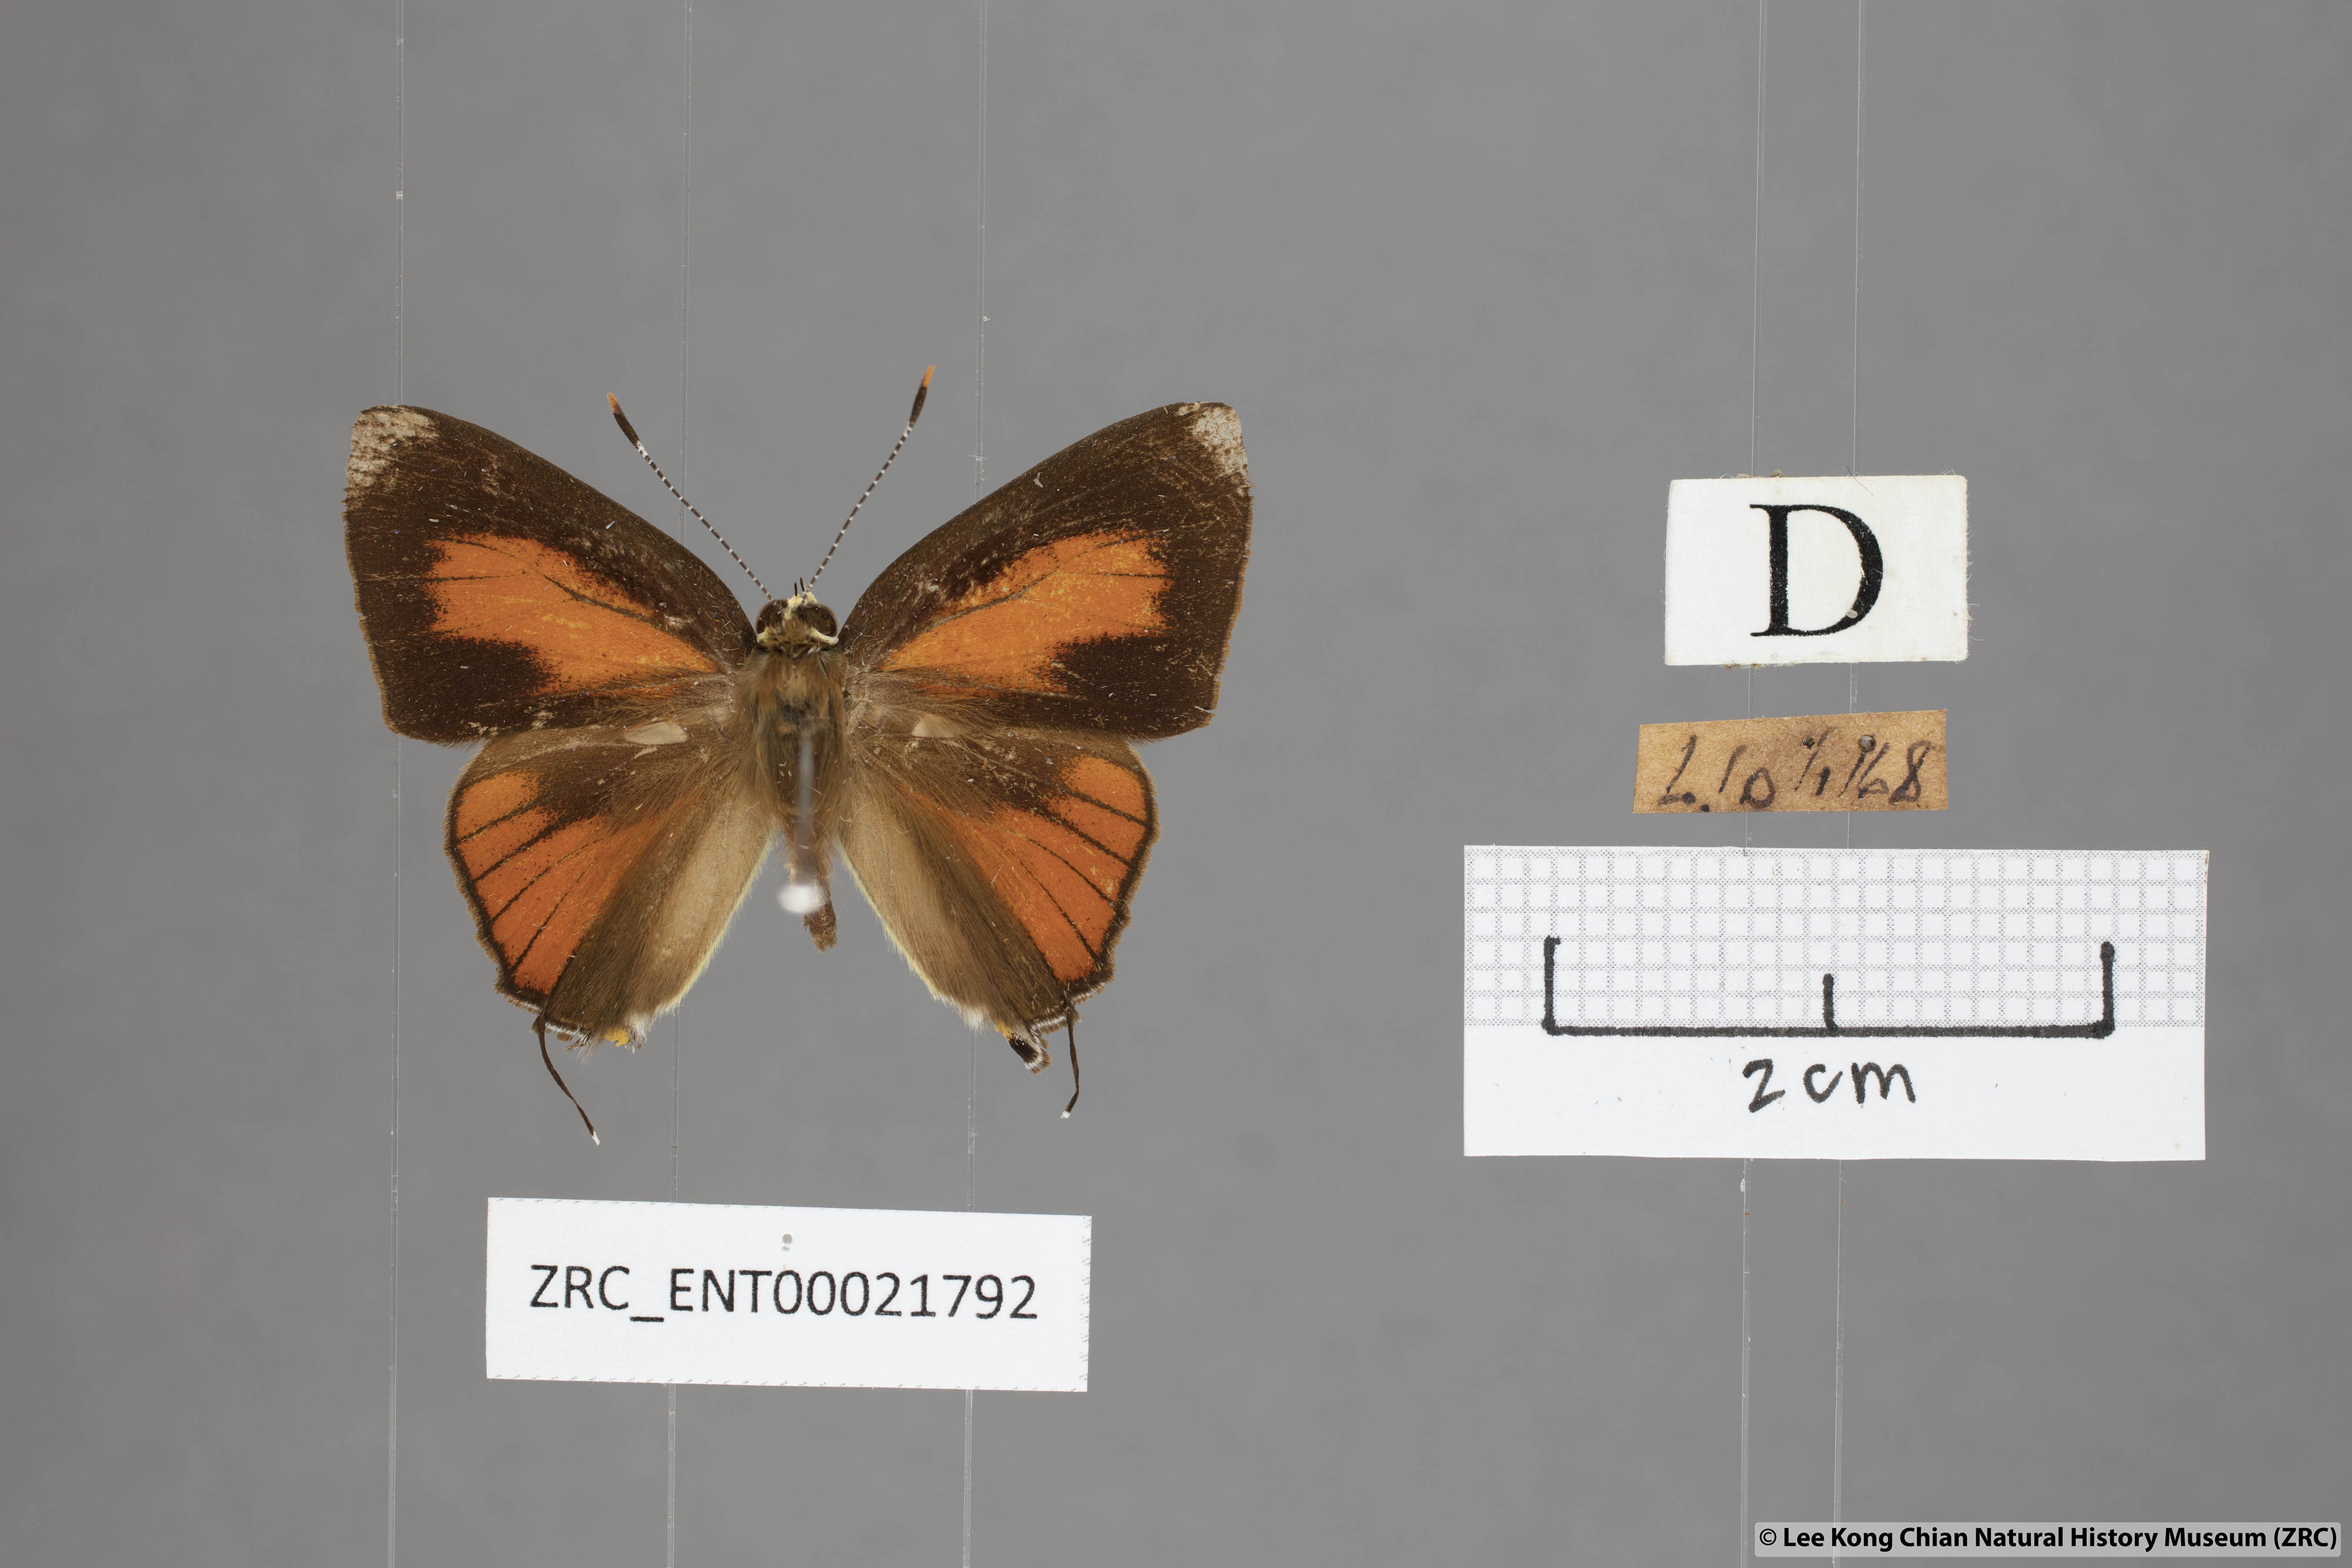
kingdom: Animalia
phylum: Arthropoda
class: Insecta
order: Lepidoptera
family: Lycaenidae
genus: Rapala
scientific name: Rapala dieneces
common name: Scarlet flash
